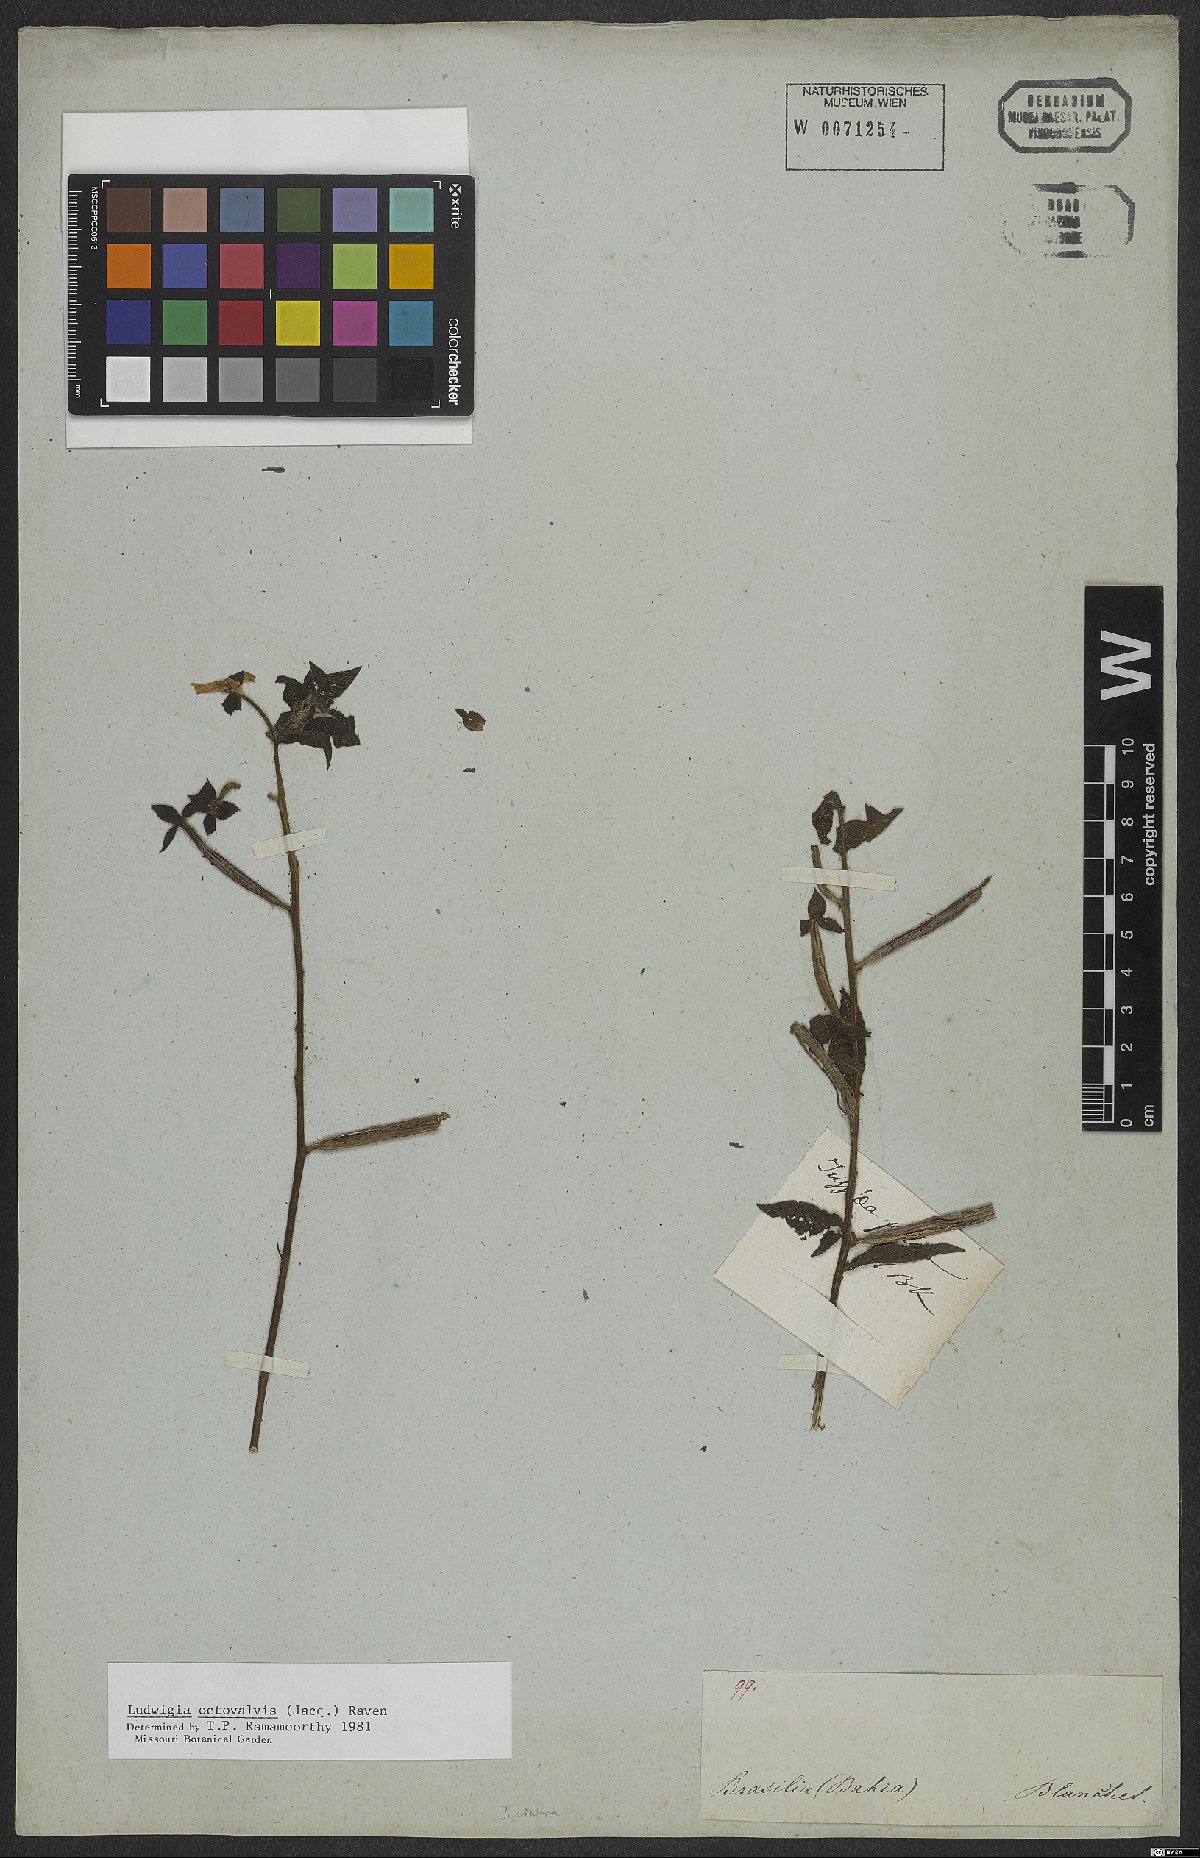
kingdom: Plantae
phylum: Tracheophyta
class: Magnoliopsida
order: Myrtales
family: Onagraceae
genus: Ludwigia
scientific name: Ludwigia octovalvis
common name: Water-primrose
